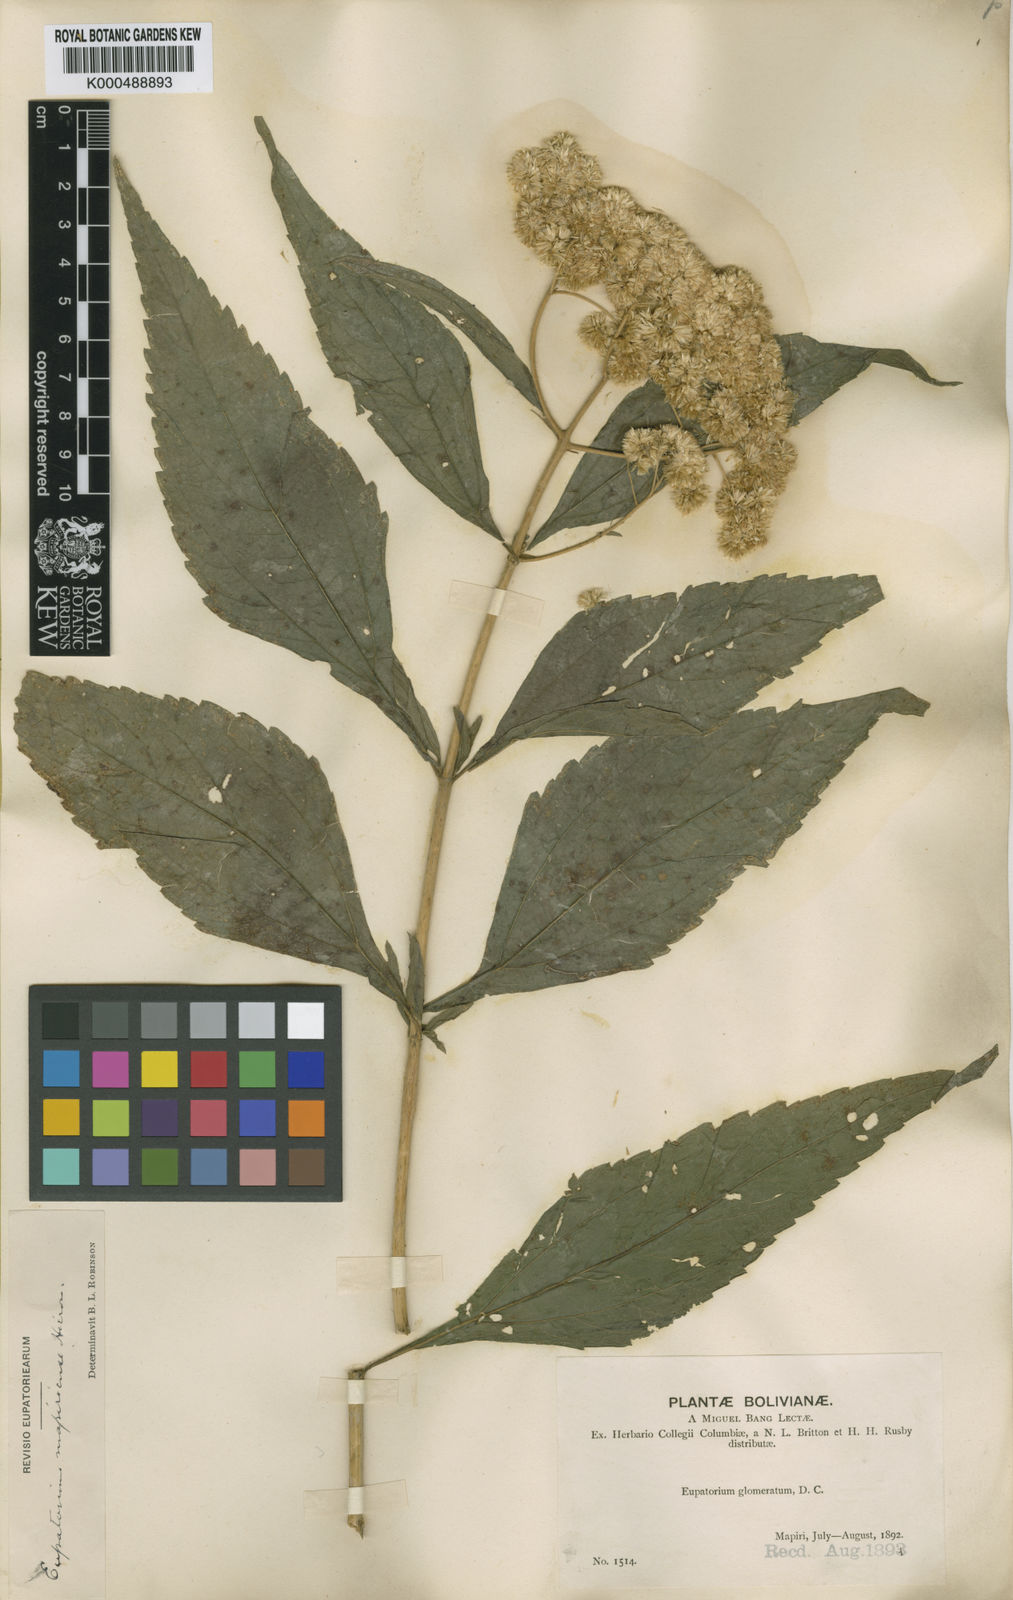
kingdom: Plantae
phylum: Tracheophyta
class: Magnoliopsida
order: Asterales
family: Asteraceae
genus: Austroeupatorium
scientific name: Austroeupatorium inulifolium
